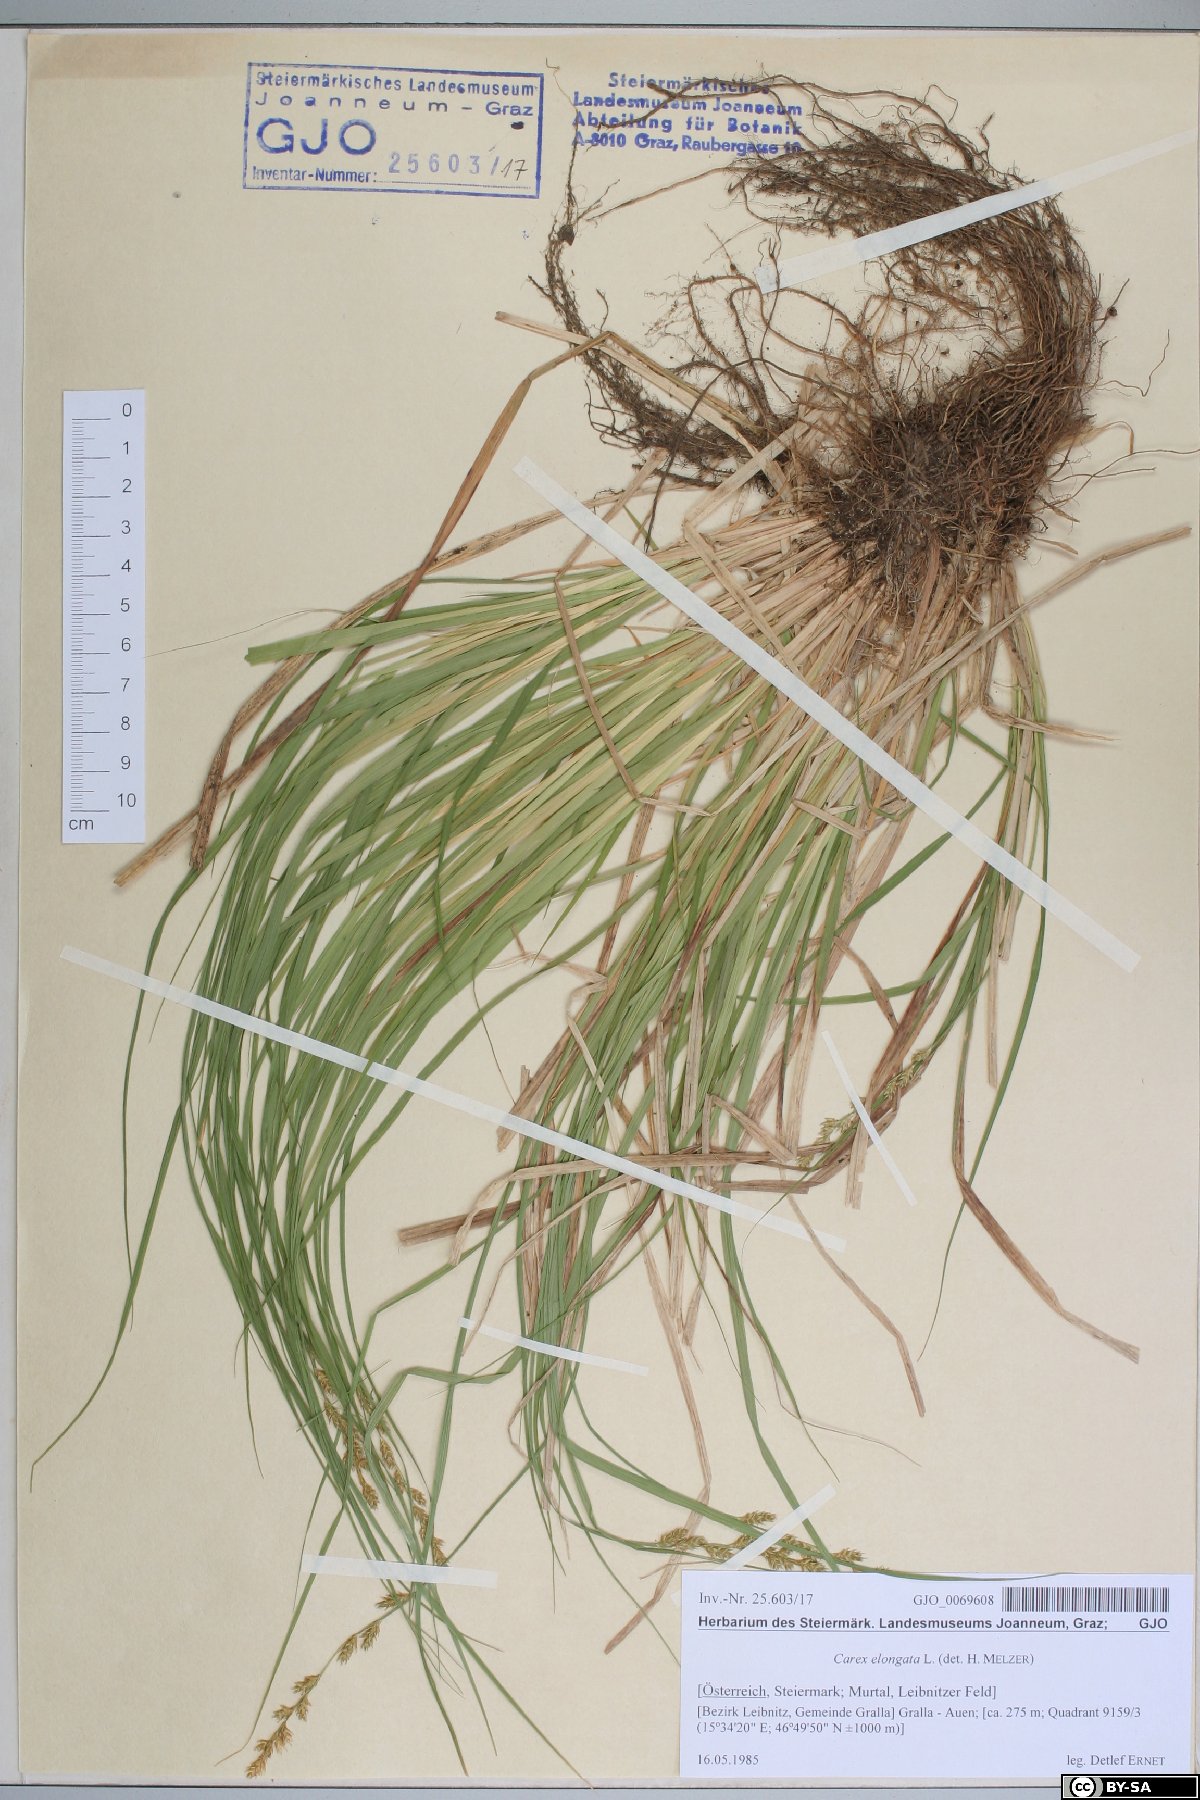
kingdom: Plantae
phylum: Tracheophyta
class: Liliopsida
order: Poales
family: Cyperaceae
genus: Carex
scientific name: Carex elongata
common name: Elongated sedge
